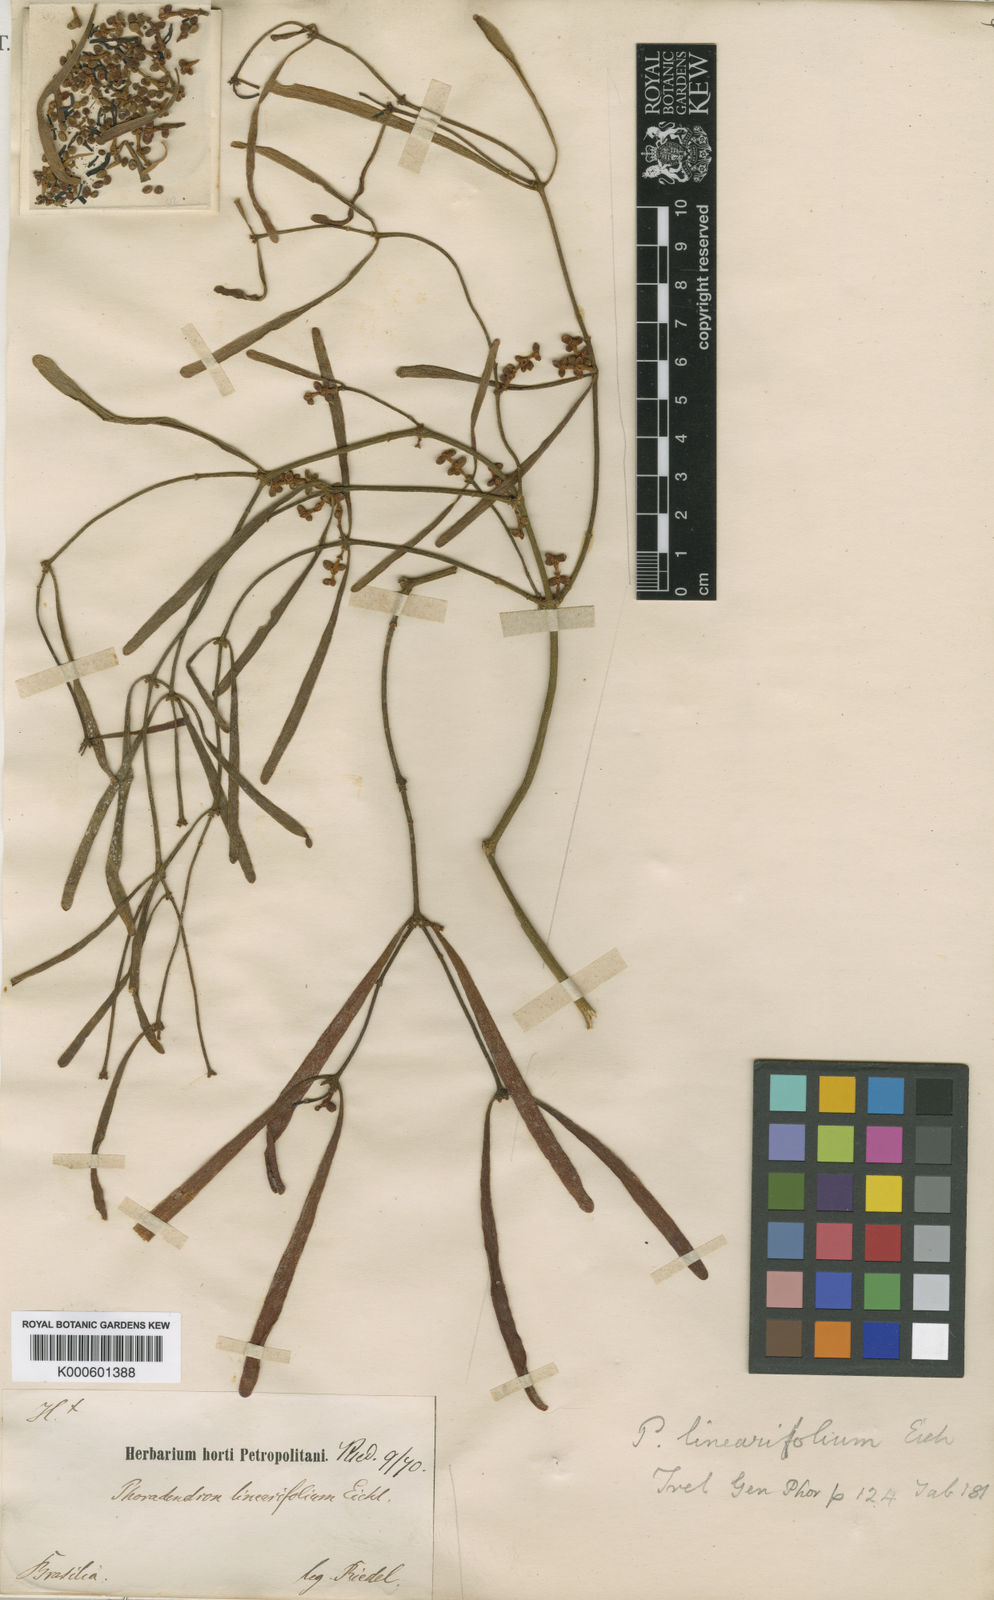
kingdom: Plantae
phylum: Tracheophyta
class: Magnoliopsida
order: Santalales
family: Viscaceae
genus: Phoradendron
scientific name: Phoradendron linearifolium
